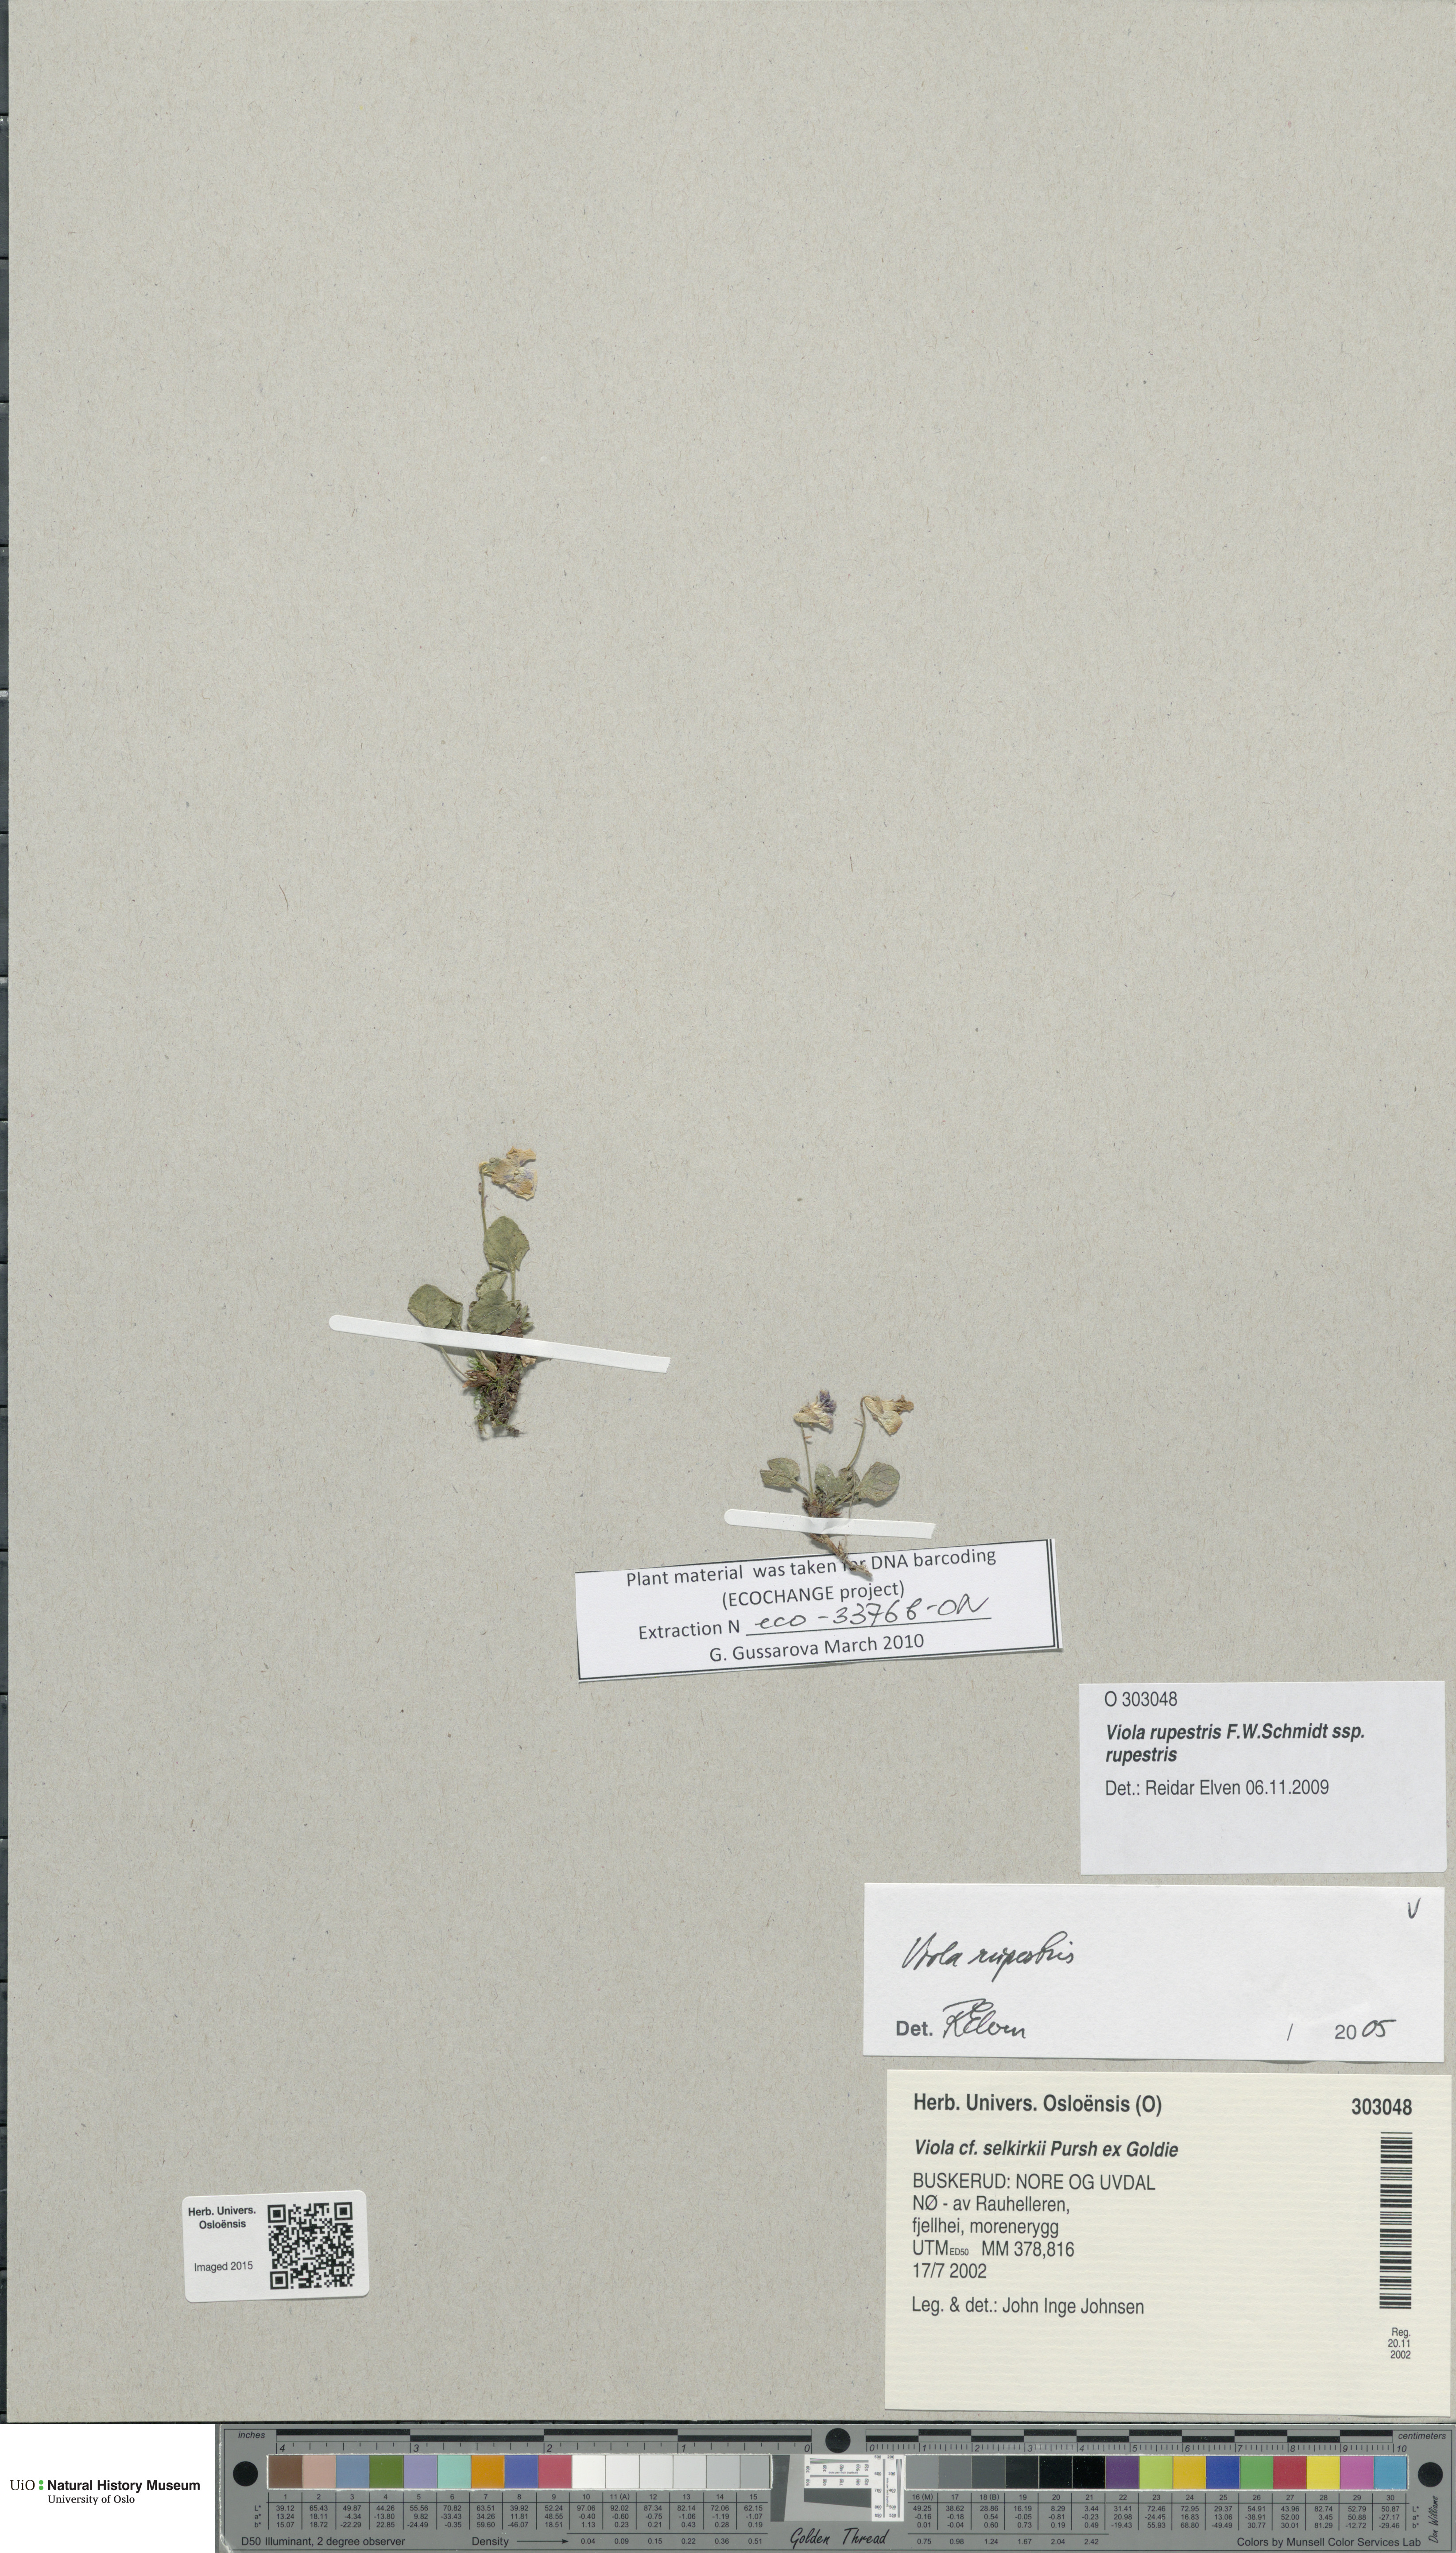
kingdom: Plantae
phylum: Tracheophyta
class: Magnoliopsida
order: Malpighiales
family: Violaceae
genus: Viola
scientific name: Viola rupestris
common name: Teesdale violet
